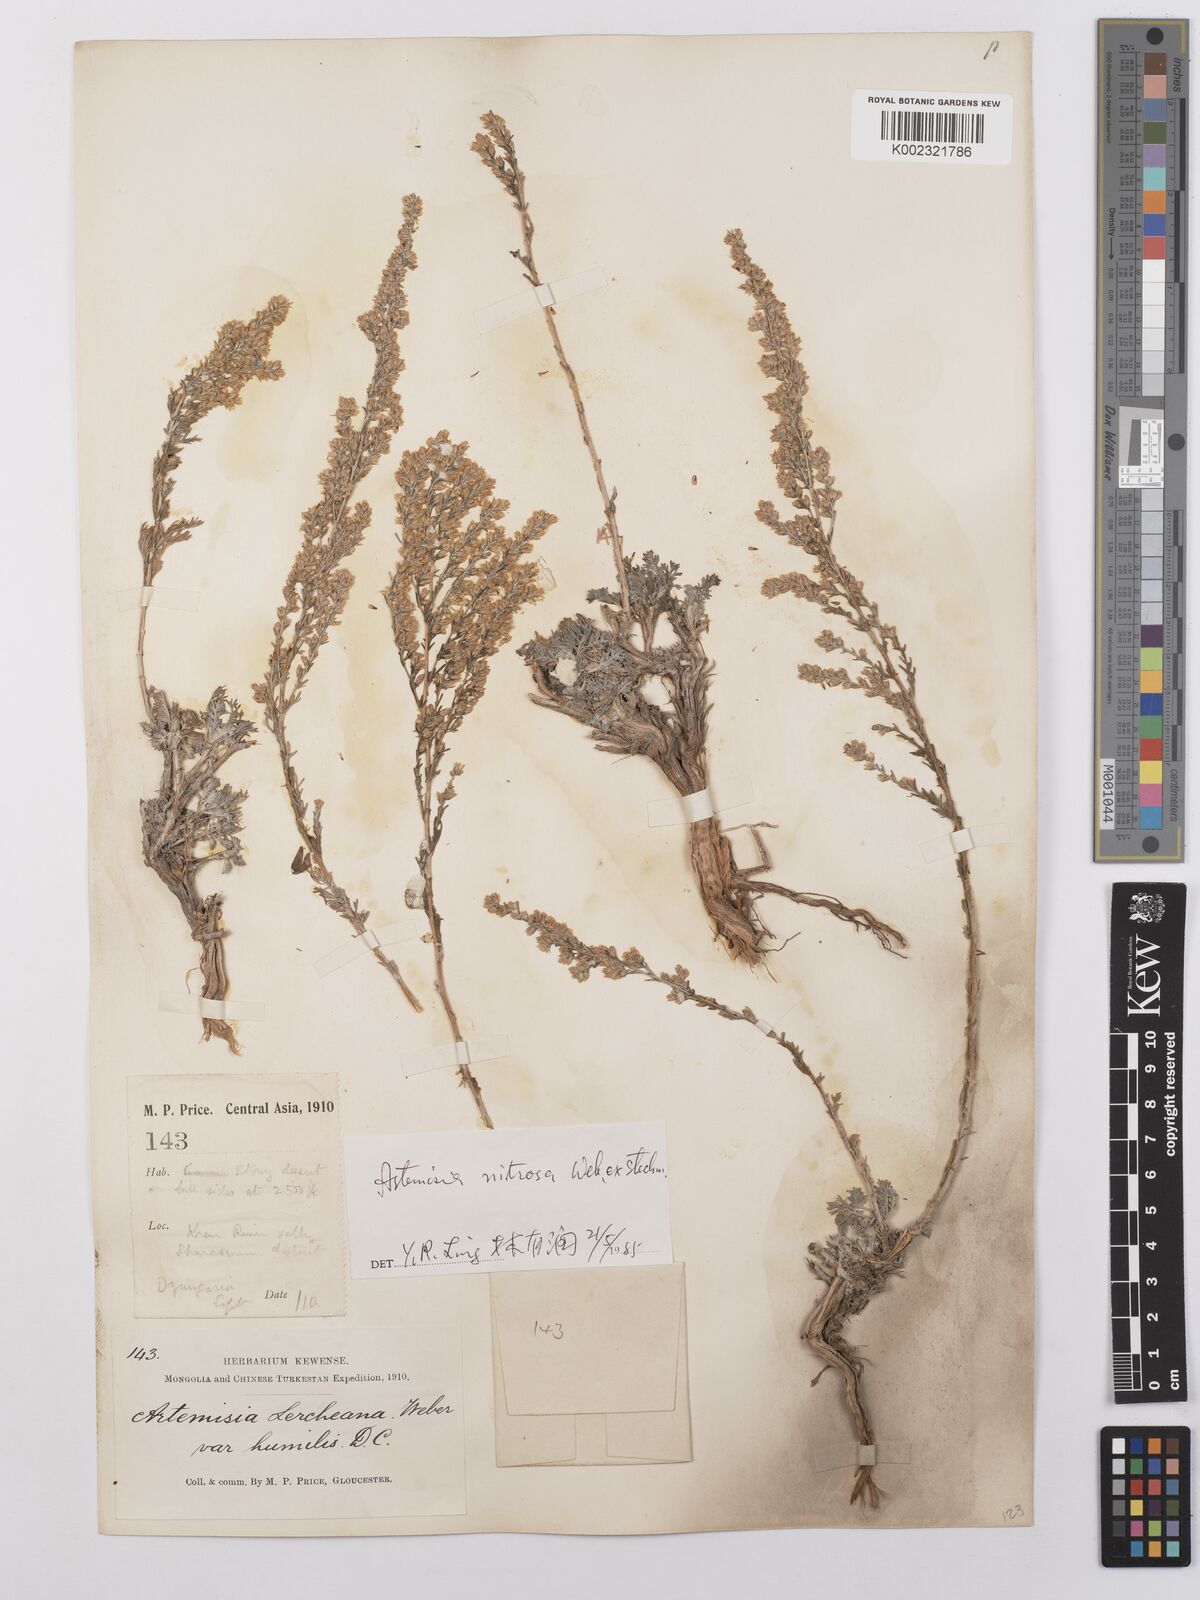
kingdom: Plantae
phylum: Tracheophyta
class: Magnoliopsida
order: Asterales
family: Asteraceae
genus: Artemisia
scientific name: Artemisia nitrosa
